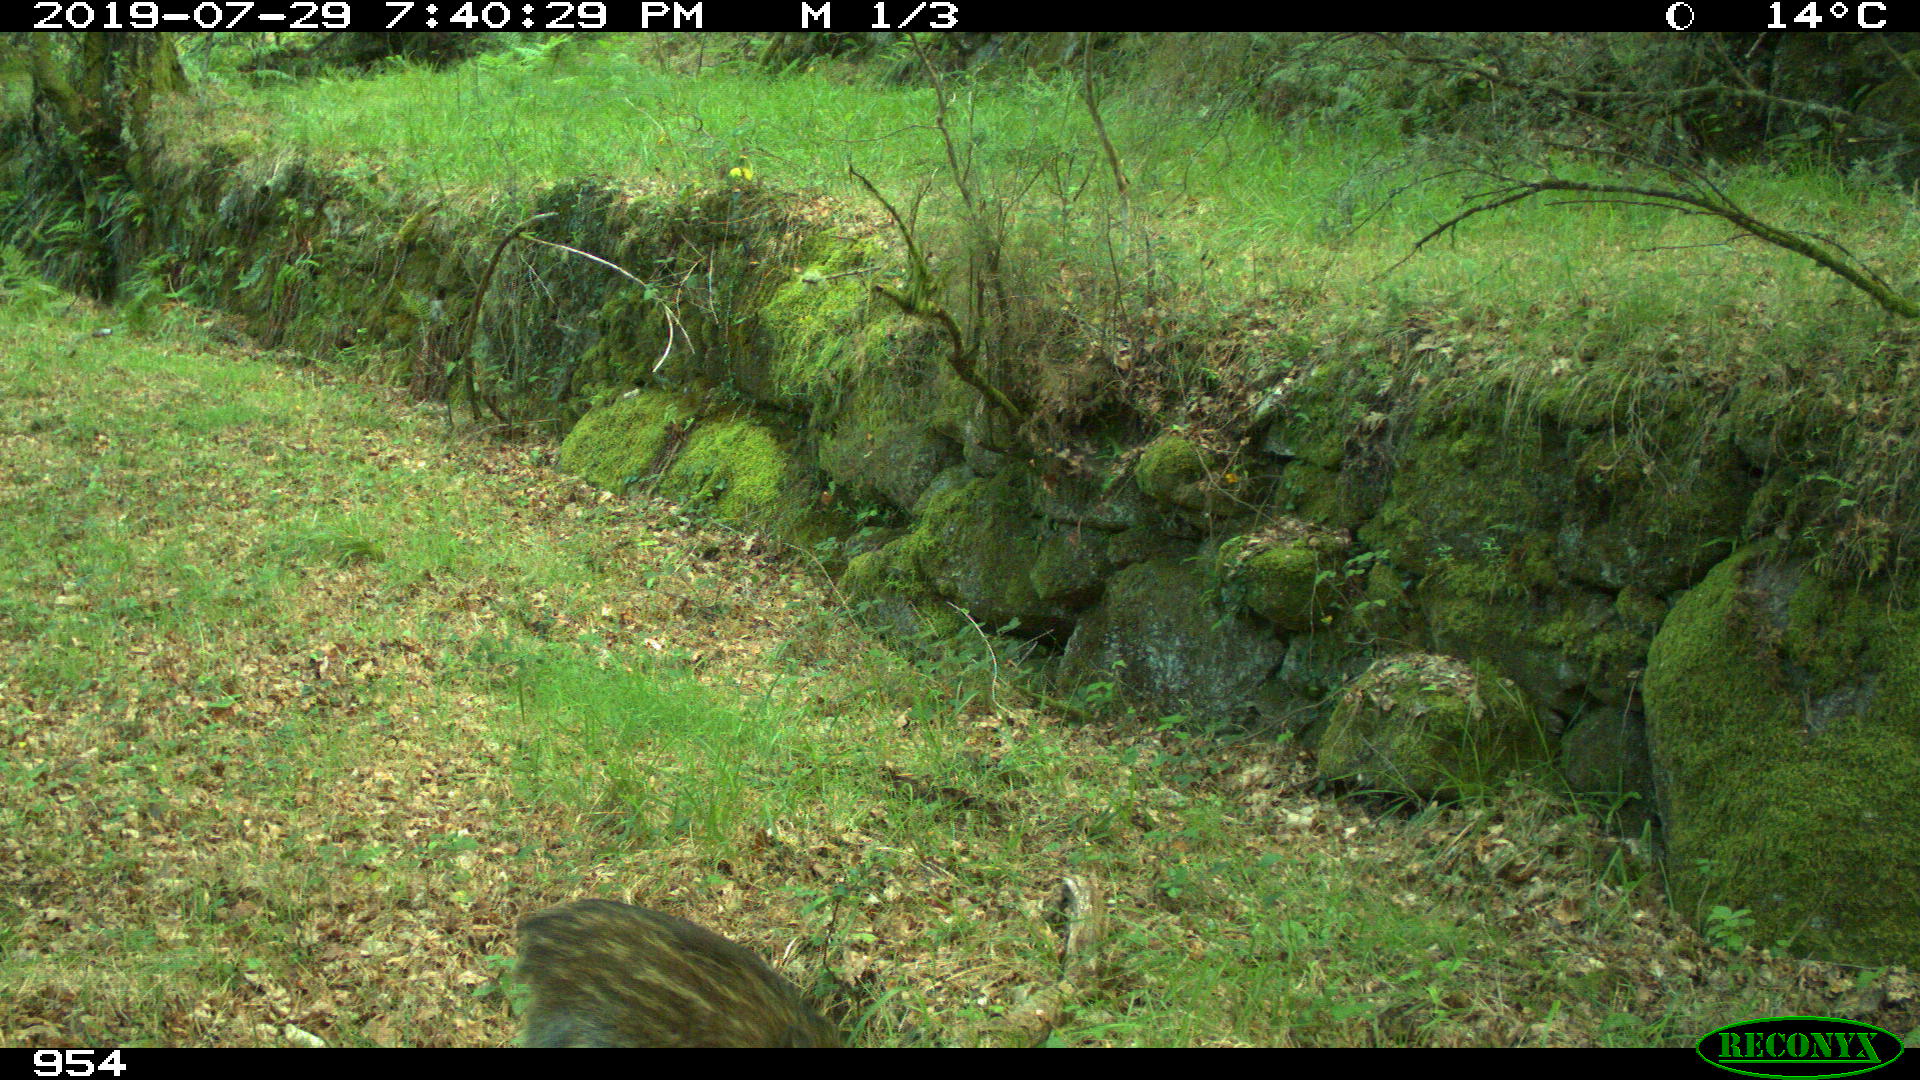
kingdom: Animalia
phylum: Chordata
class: Mammalia
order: Artiodactyla
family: Suidae
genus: Sus
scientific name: Sus scrofa
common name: Wild boar
